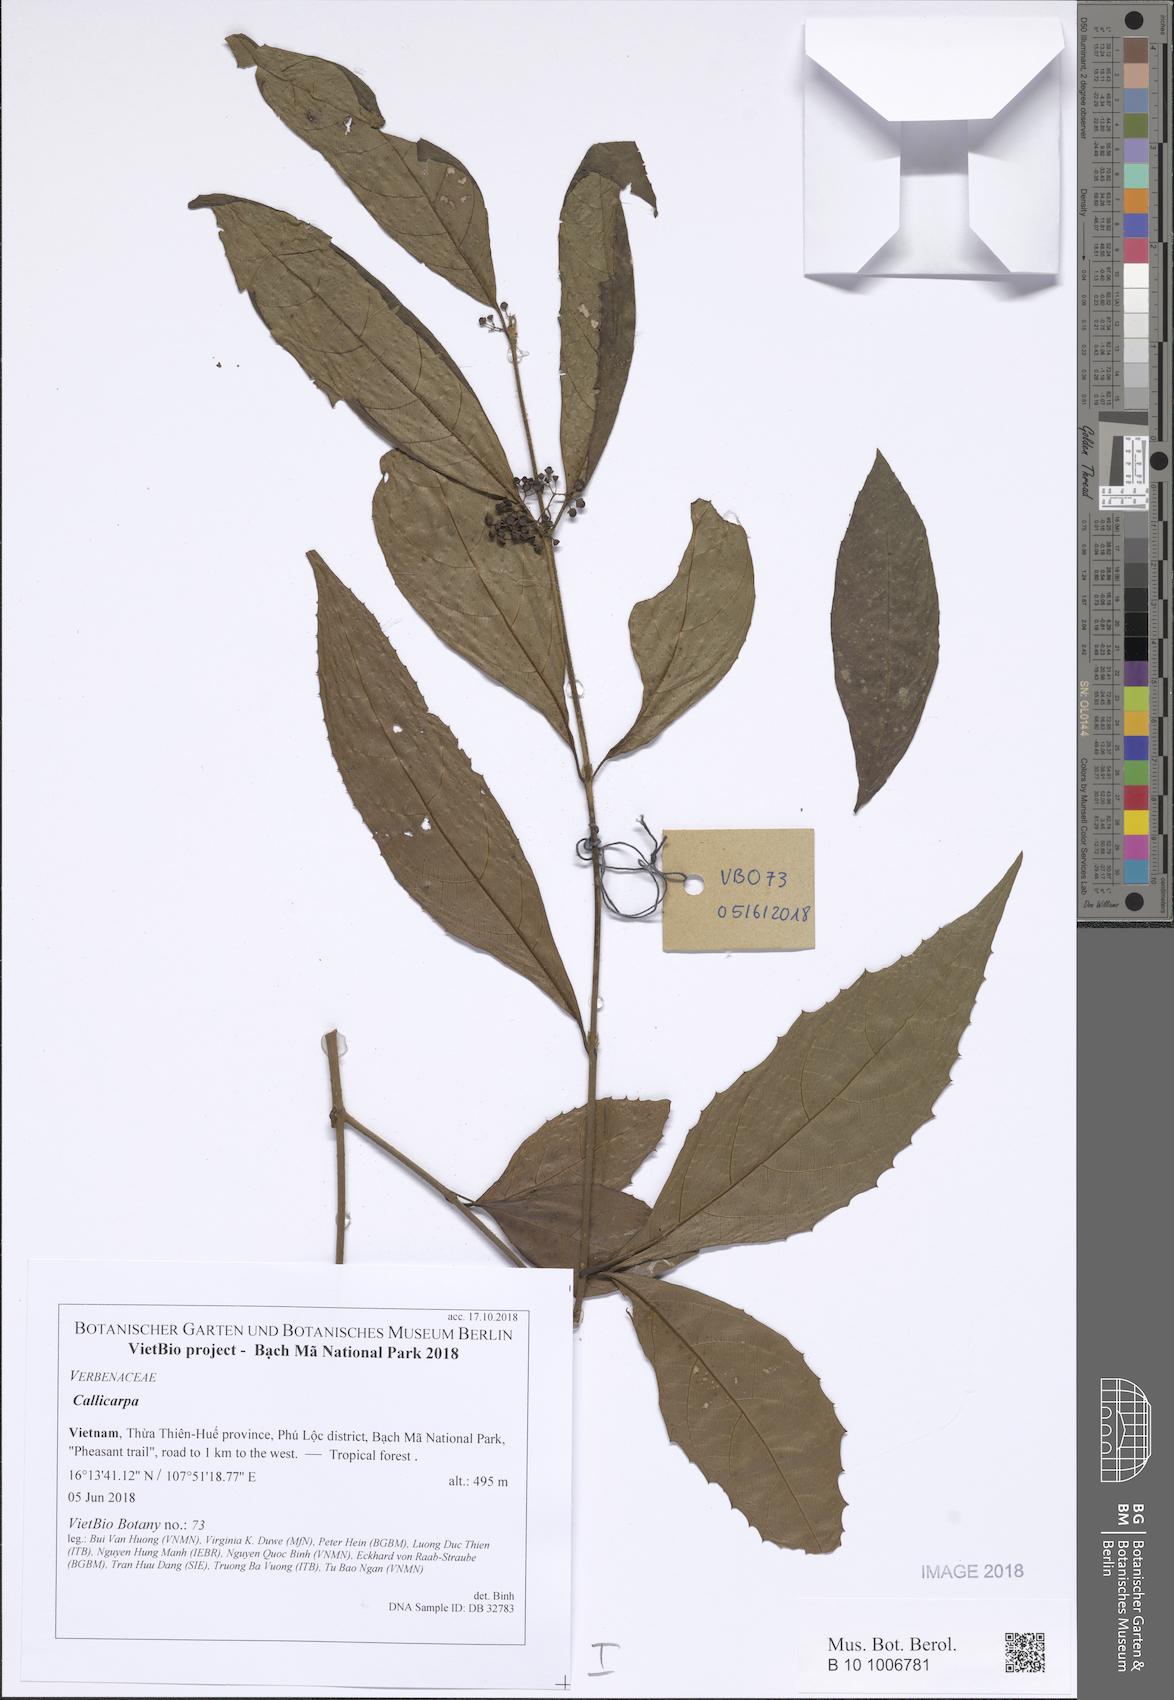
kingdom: Plantae
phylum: Tracheophyta
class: Magnoliopsida
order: Lamiales
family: Lamiaceae
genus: Callicarpa
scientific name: Callicarpa
